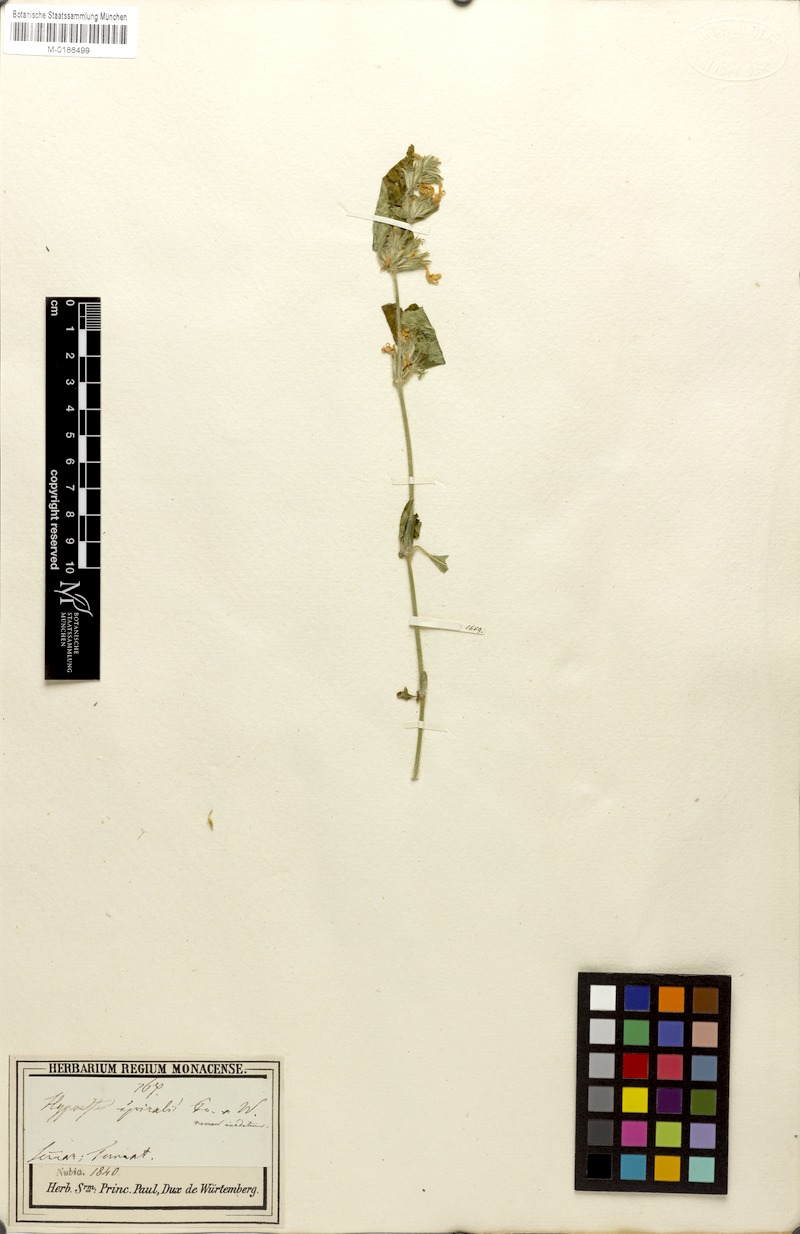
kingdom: Plantae
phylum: Tracheophyta
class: Magnoliopsida
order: Lamiales
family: Acanthaceae
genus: Hypoestes
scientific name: Hypoestes forskaolii
